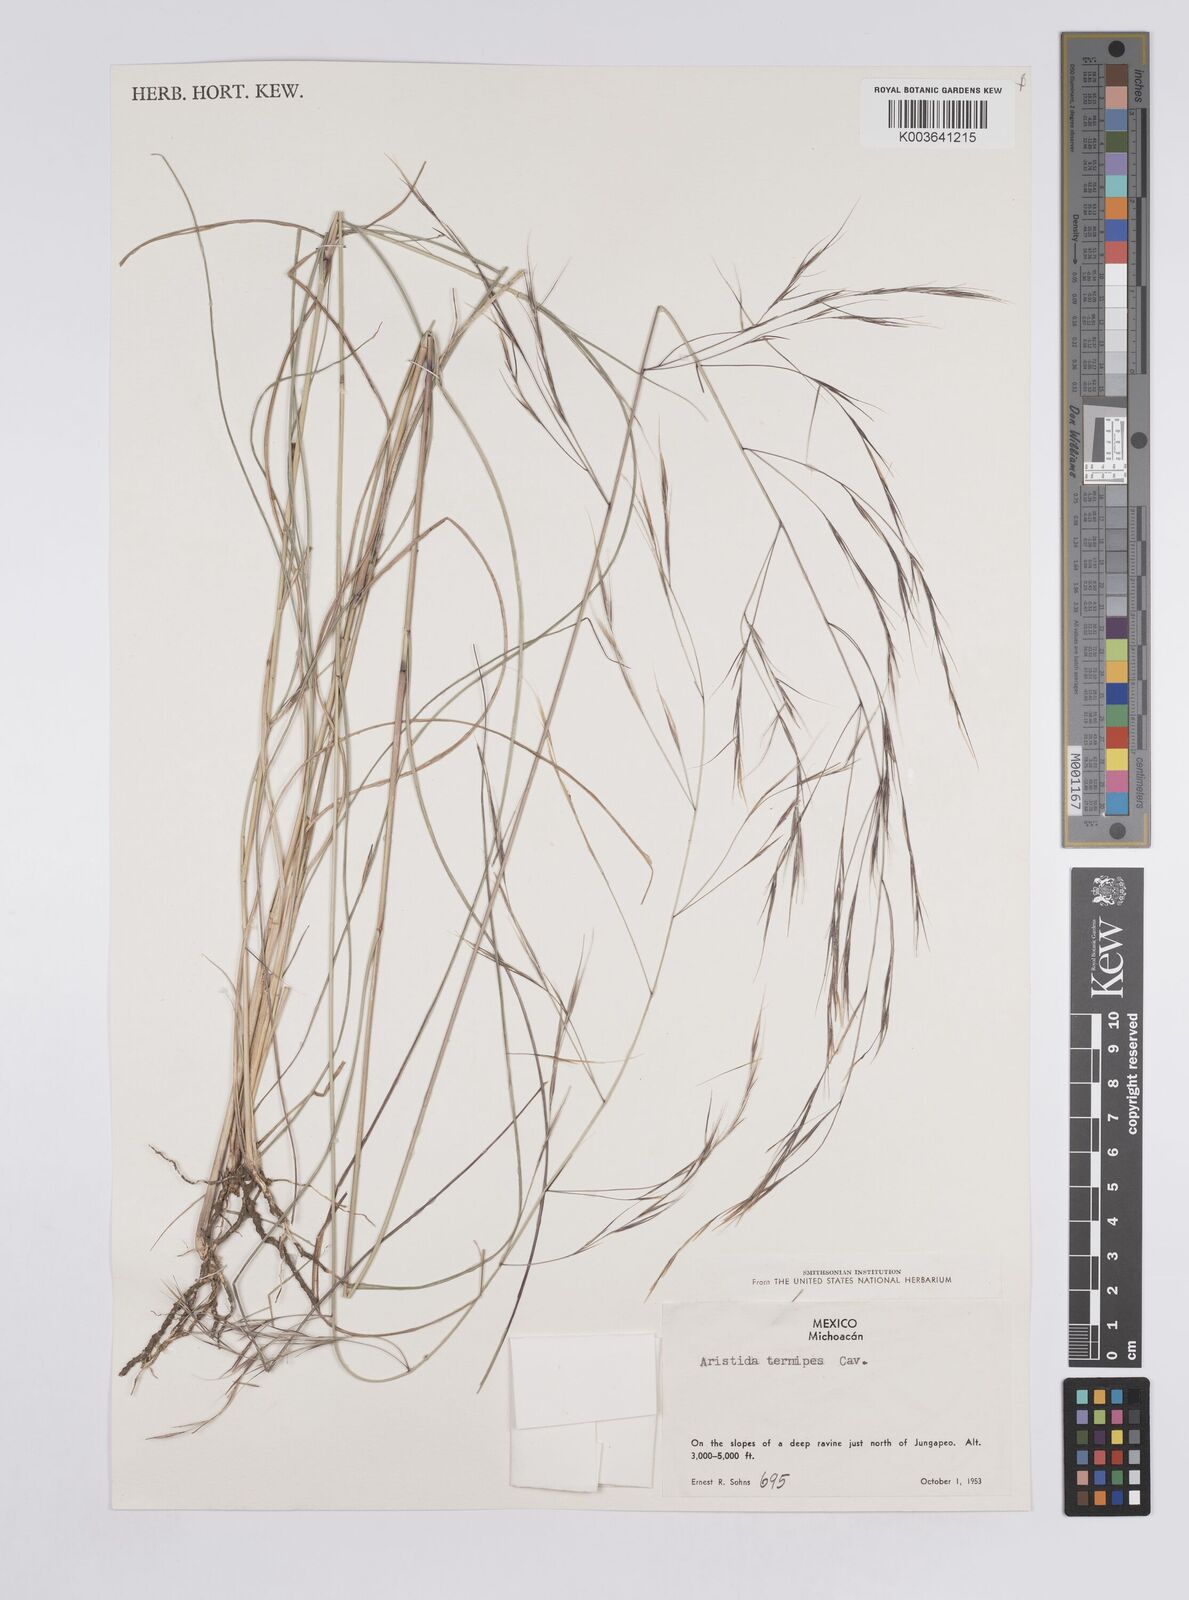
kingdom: Plantae
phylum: Tracheophyta
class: Liliopsida
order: Poales
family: Poaceae
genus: Aristida
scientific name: Aristida
